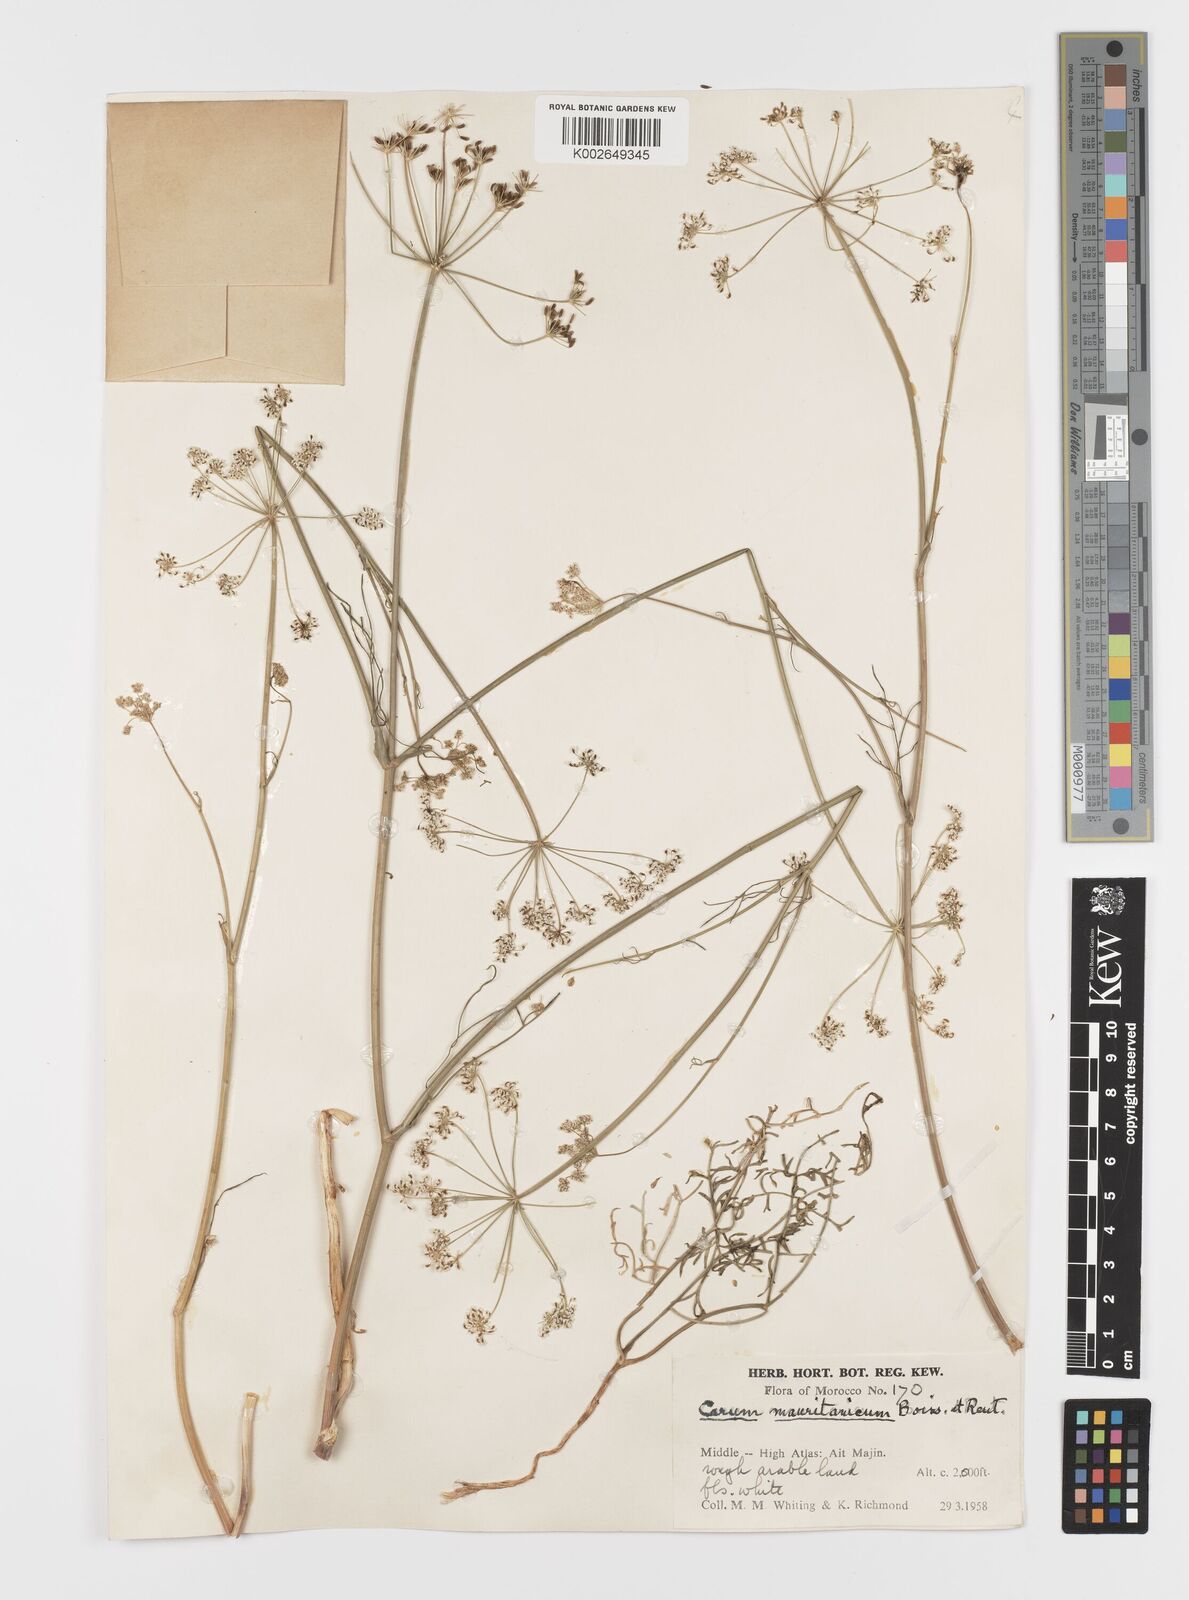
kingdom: Plantae
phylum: Tracheophyta
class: Magnoliopsida
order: Apiales
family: Apiaceae
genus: Bunium
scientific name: Bunium fontanesii
